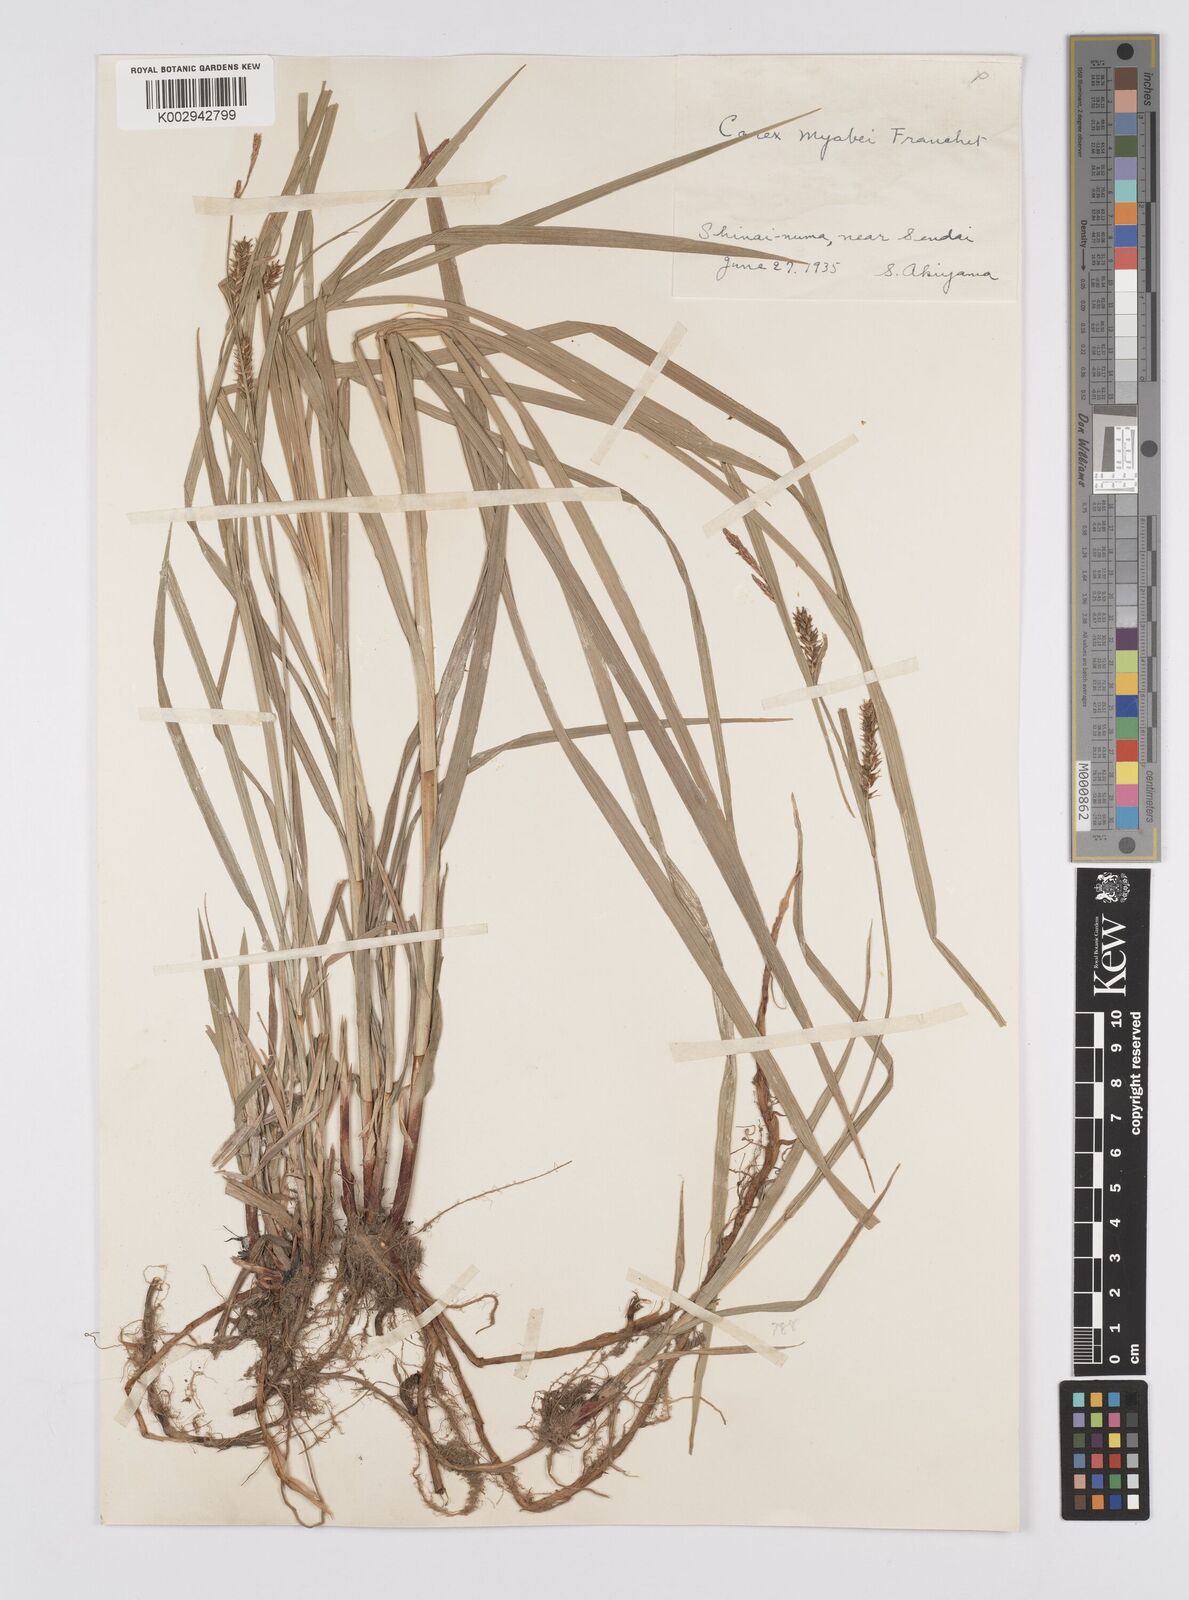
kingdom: Plantae
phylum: Tracheophyta
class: Liliopsida
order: Poales
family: Cyperaceae
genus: Carex
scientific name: Carex fedia
